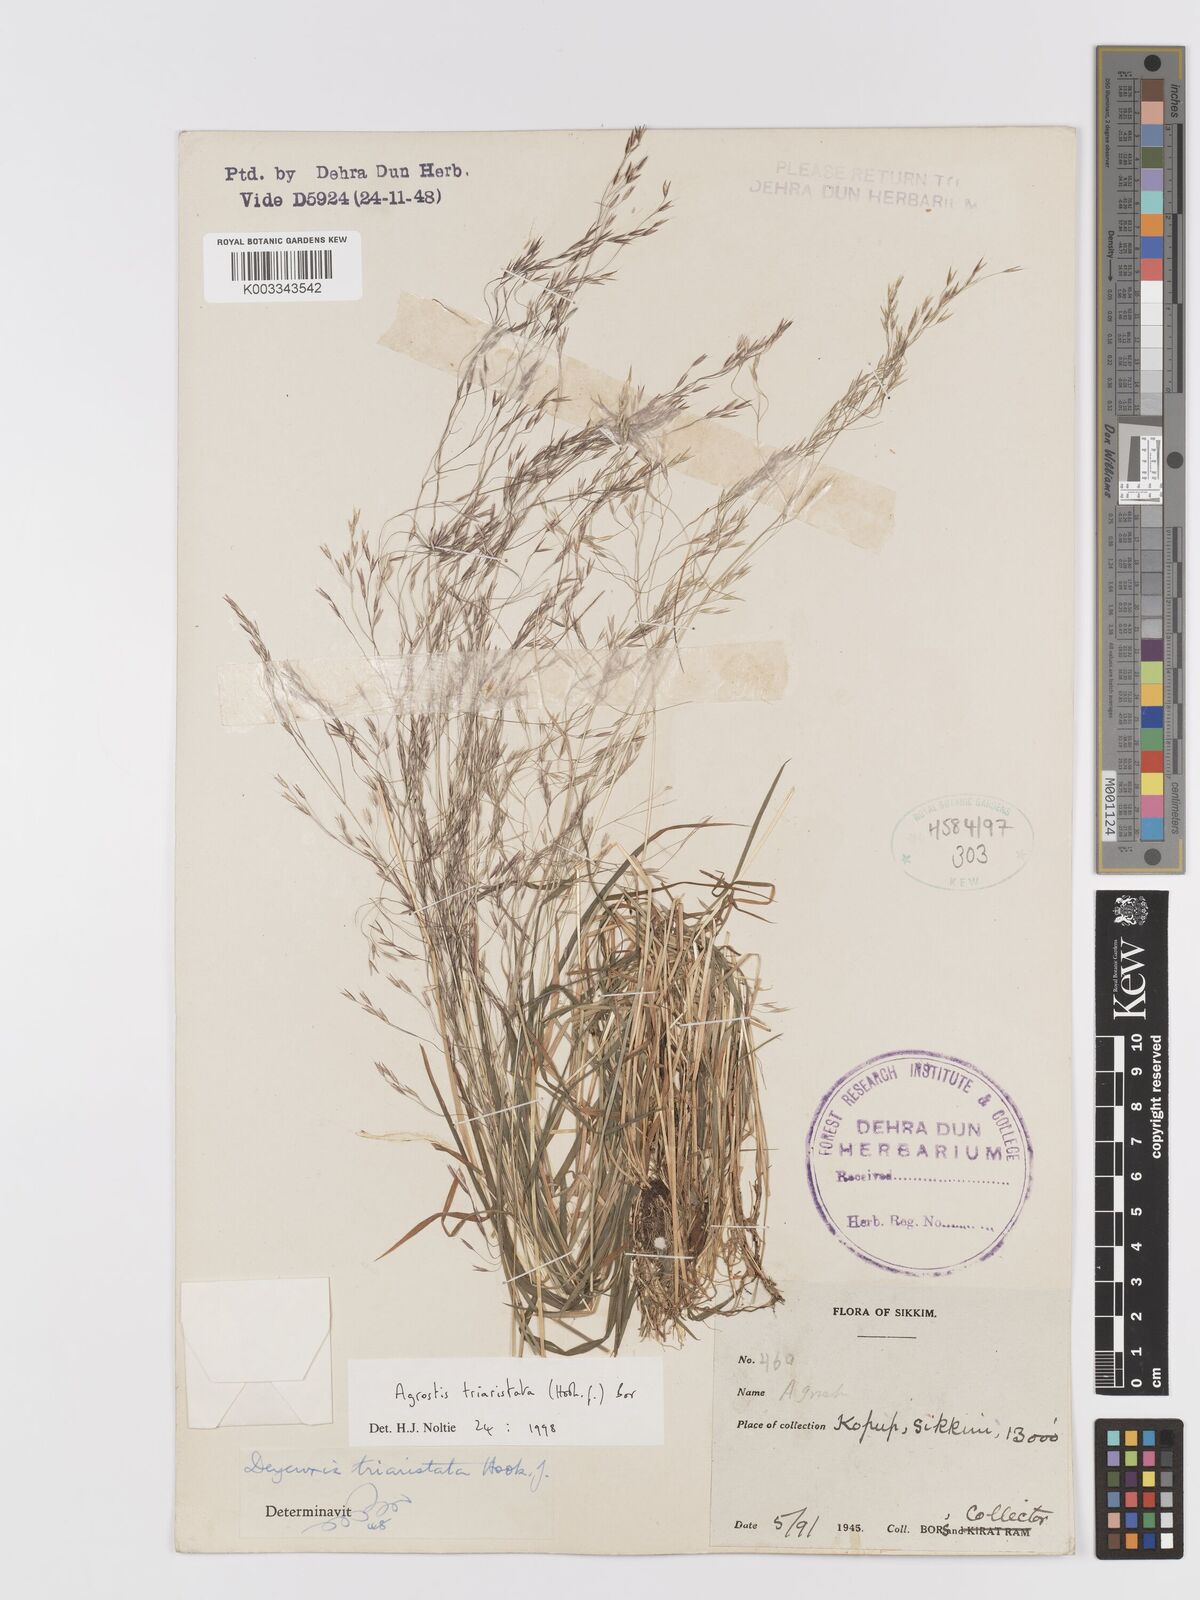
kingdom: Plantae
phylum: Tracheophyta
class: Liliopsida
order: Poales
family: Poaceae
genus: Agrostis
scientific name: Agrostis
